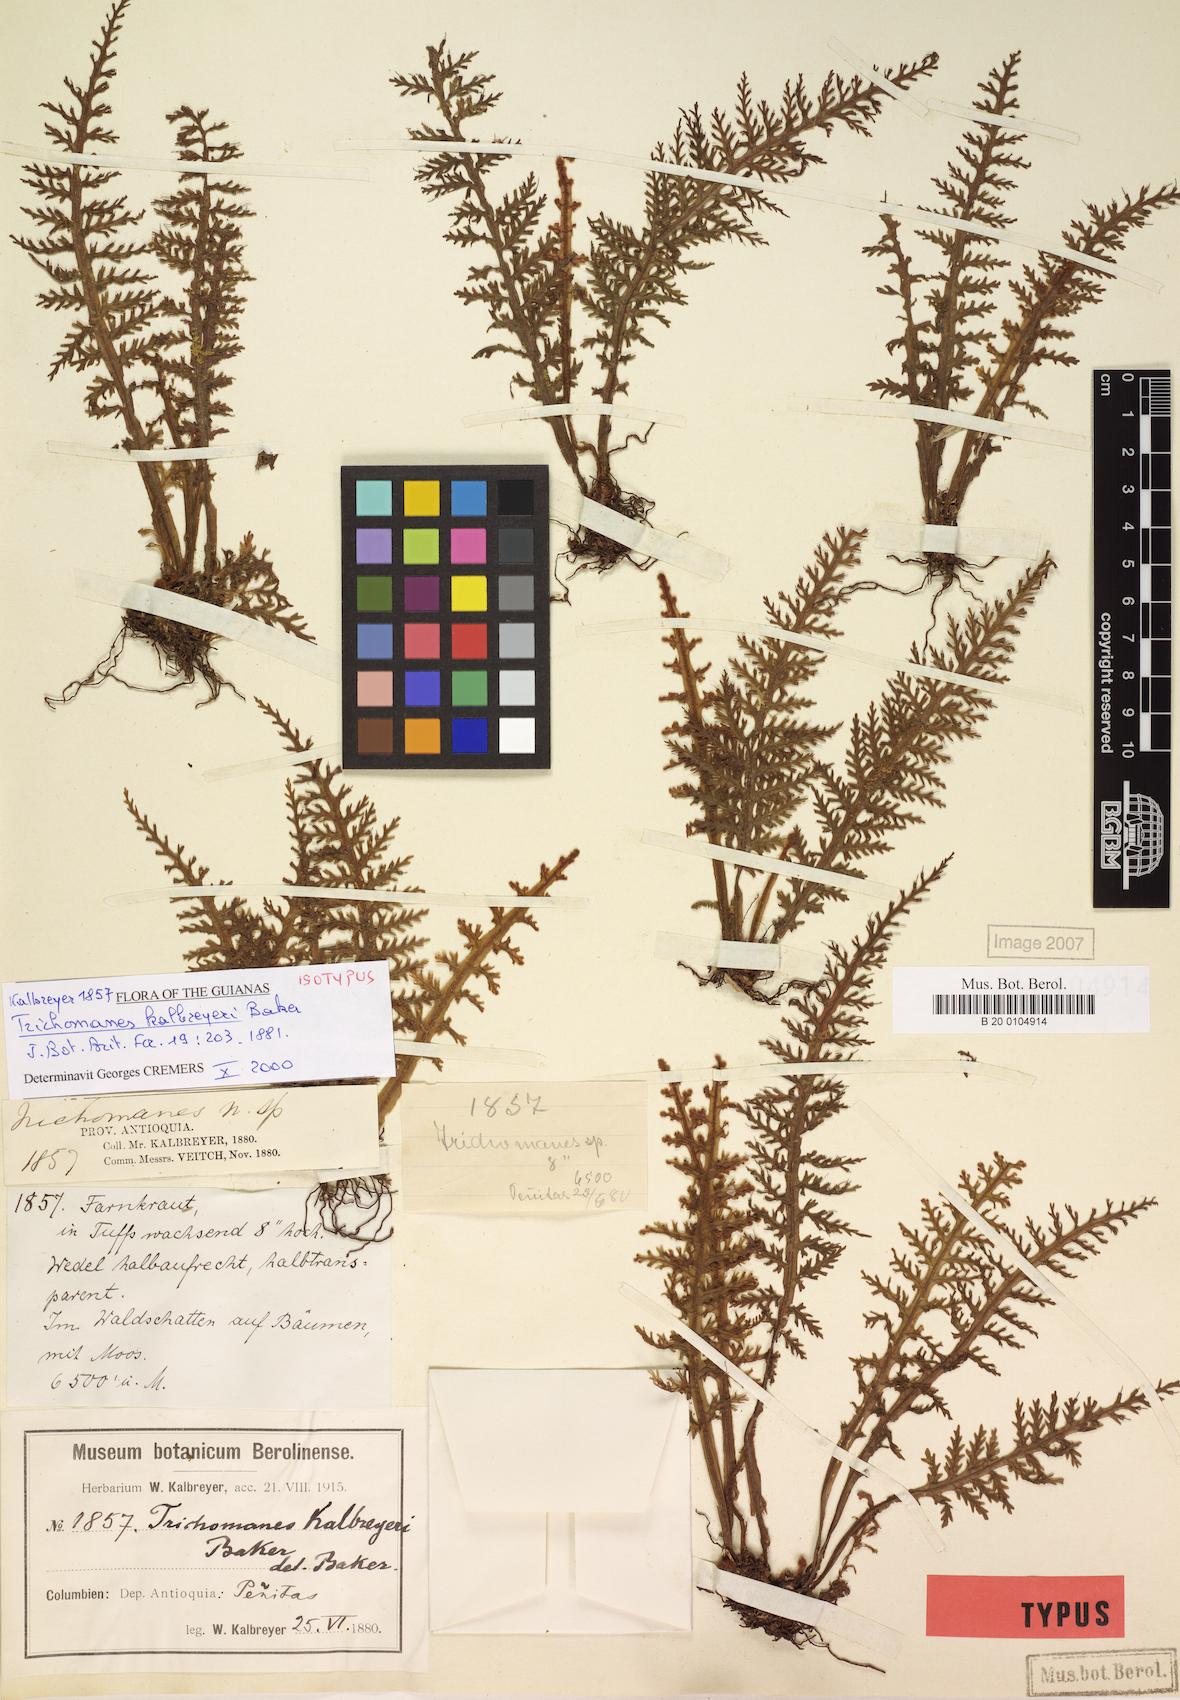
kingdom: Plantae
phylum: Tracheophyta
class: Polypodiopsida
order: Hymenophyllales
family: Hymenophyllaceae
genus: Trichomanes
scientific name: Trichomanes kalbreyeri
